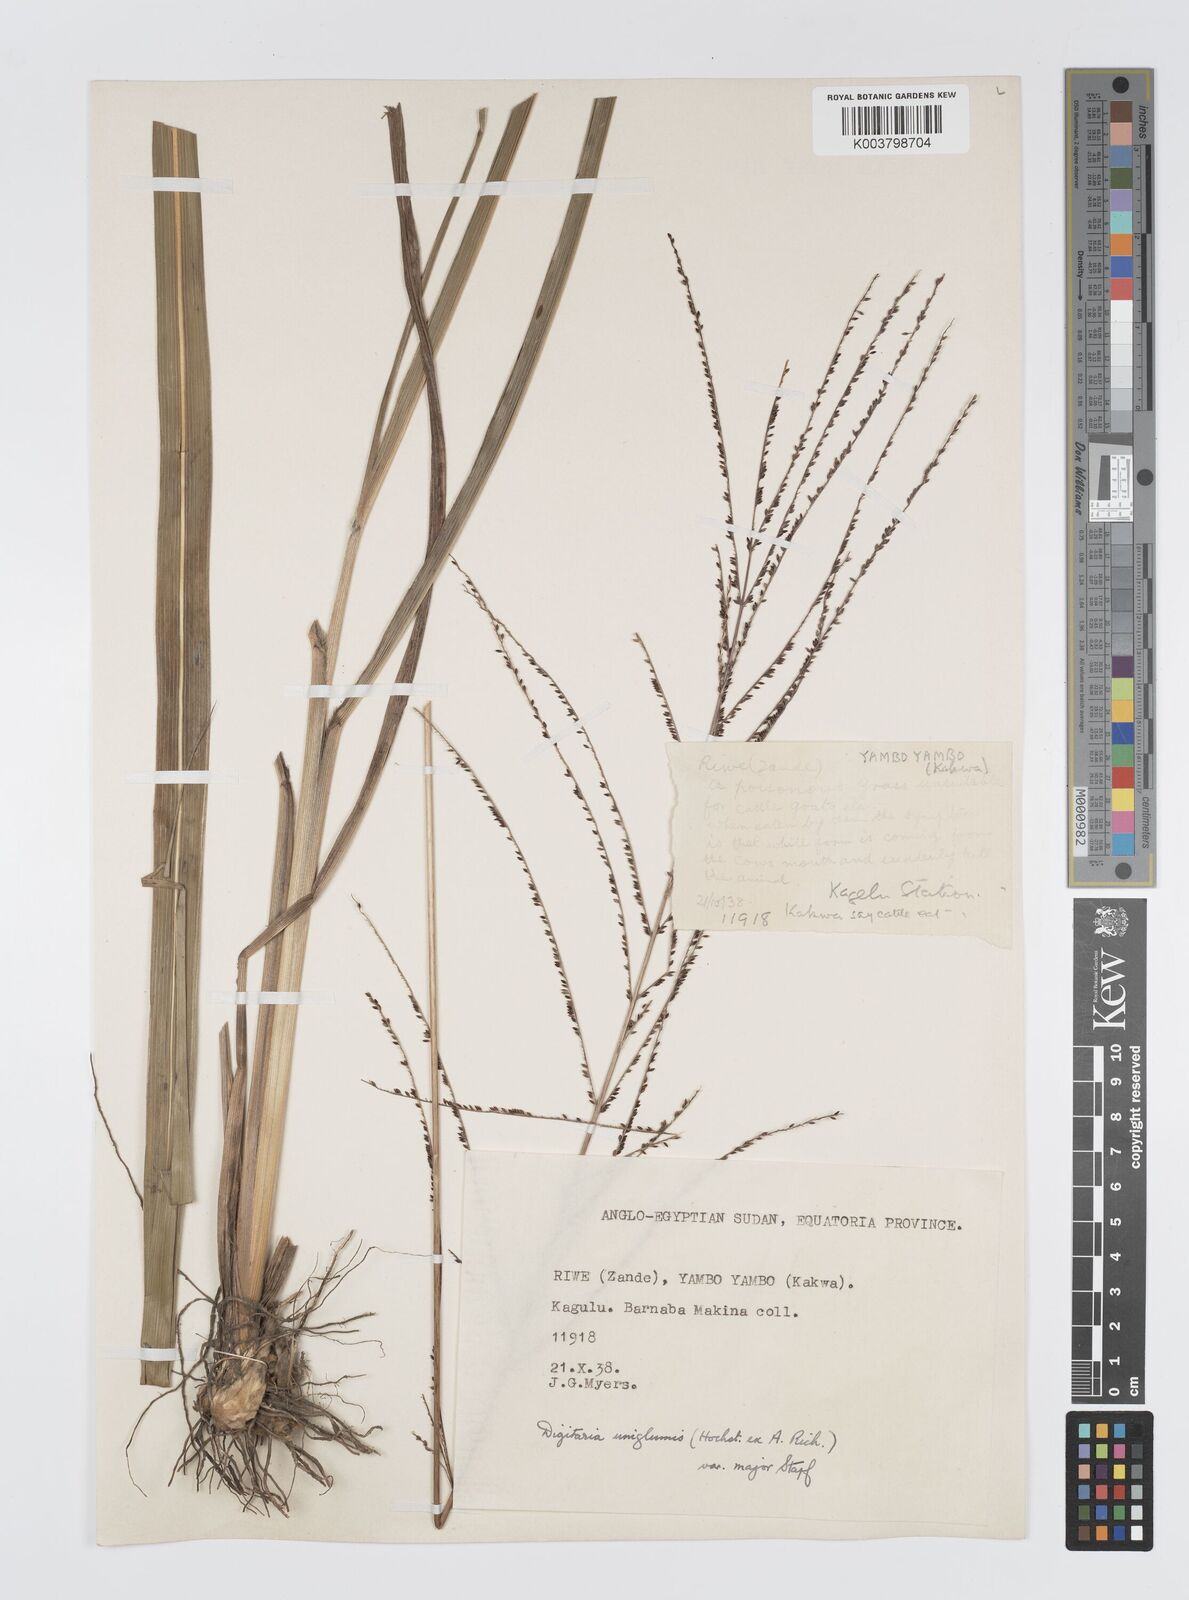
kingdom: Plantae
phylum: Tracheophyta
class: Liliopsida
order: Poales
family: Poaceae
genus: Digitaria
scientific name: Digitaria diagonalis
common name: Brown-seed finger grass
